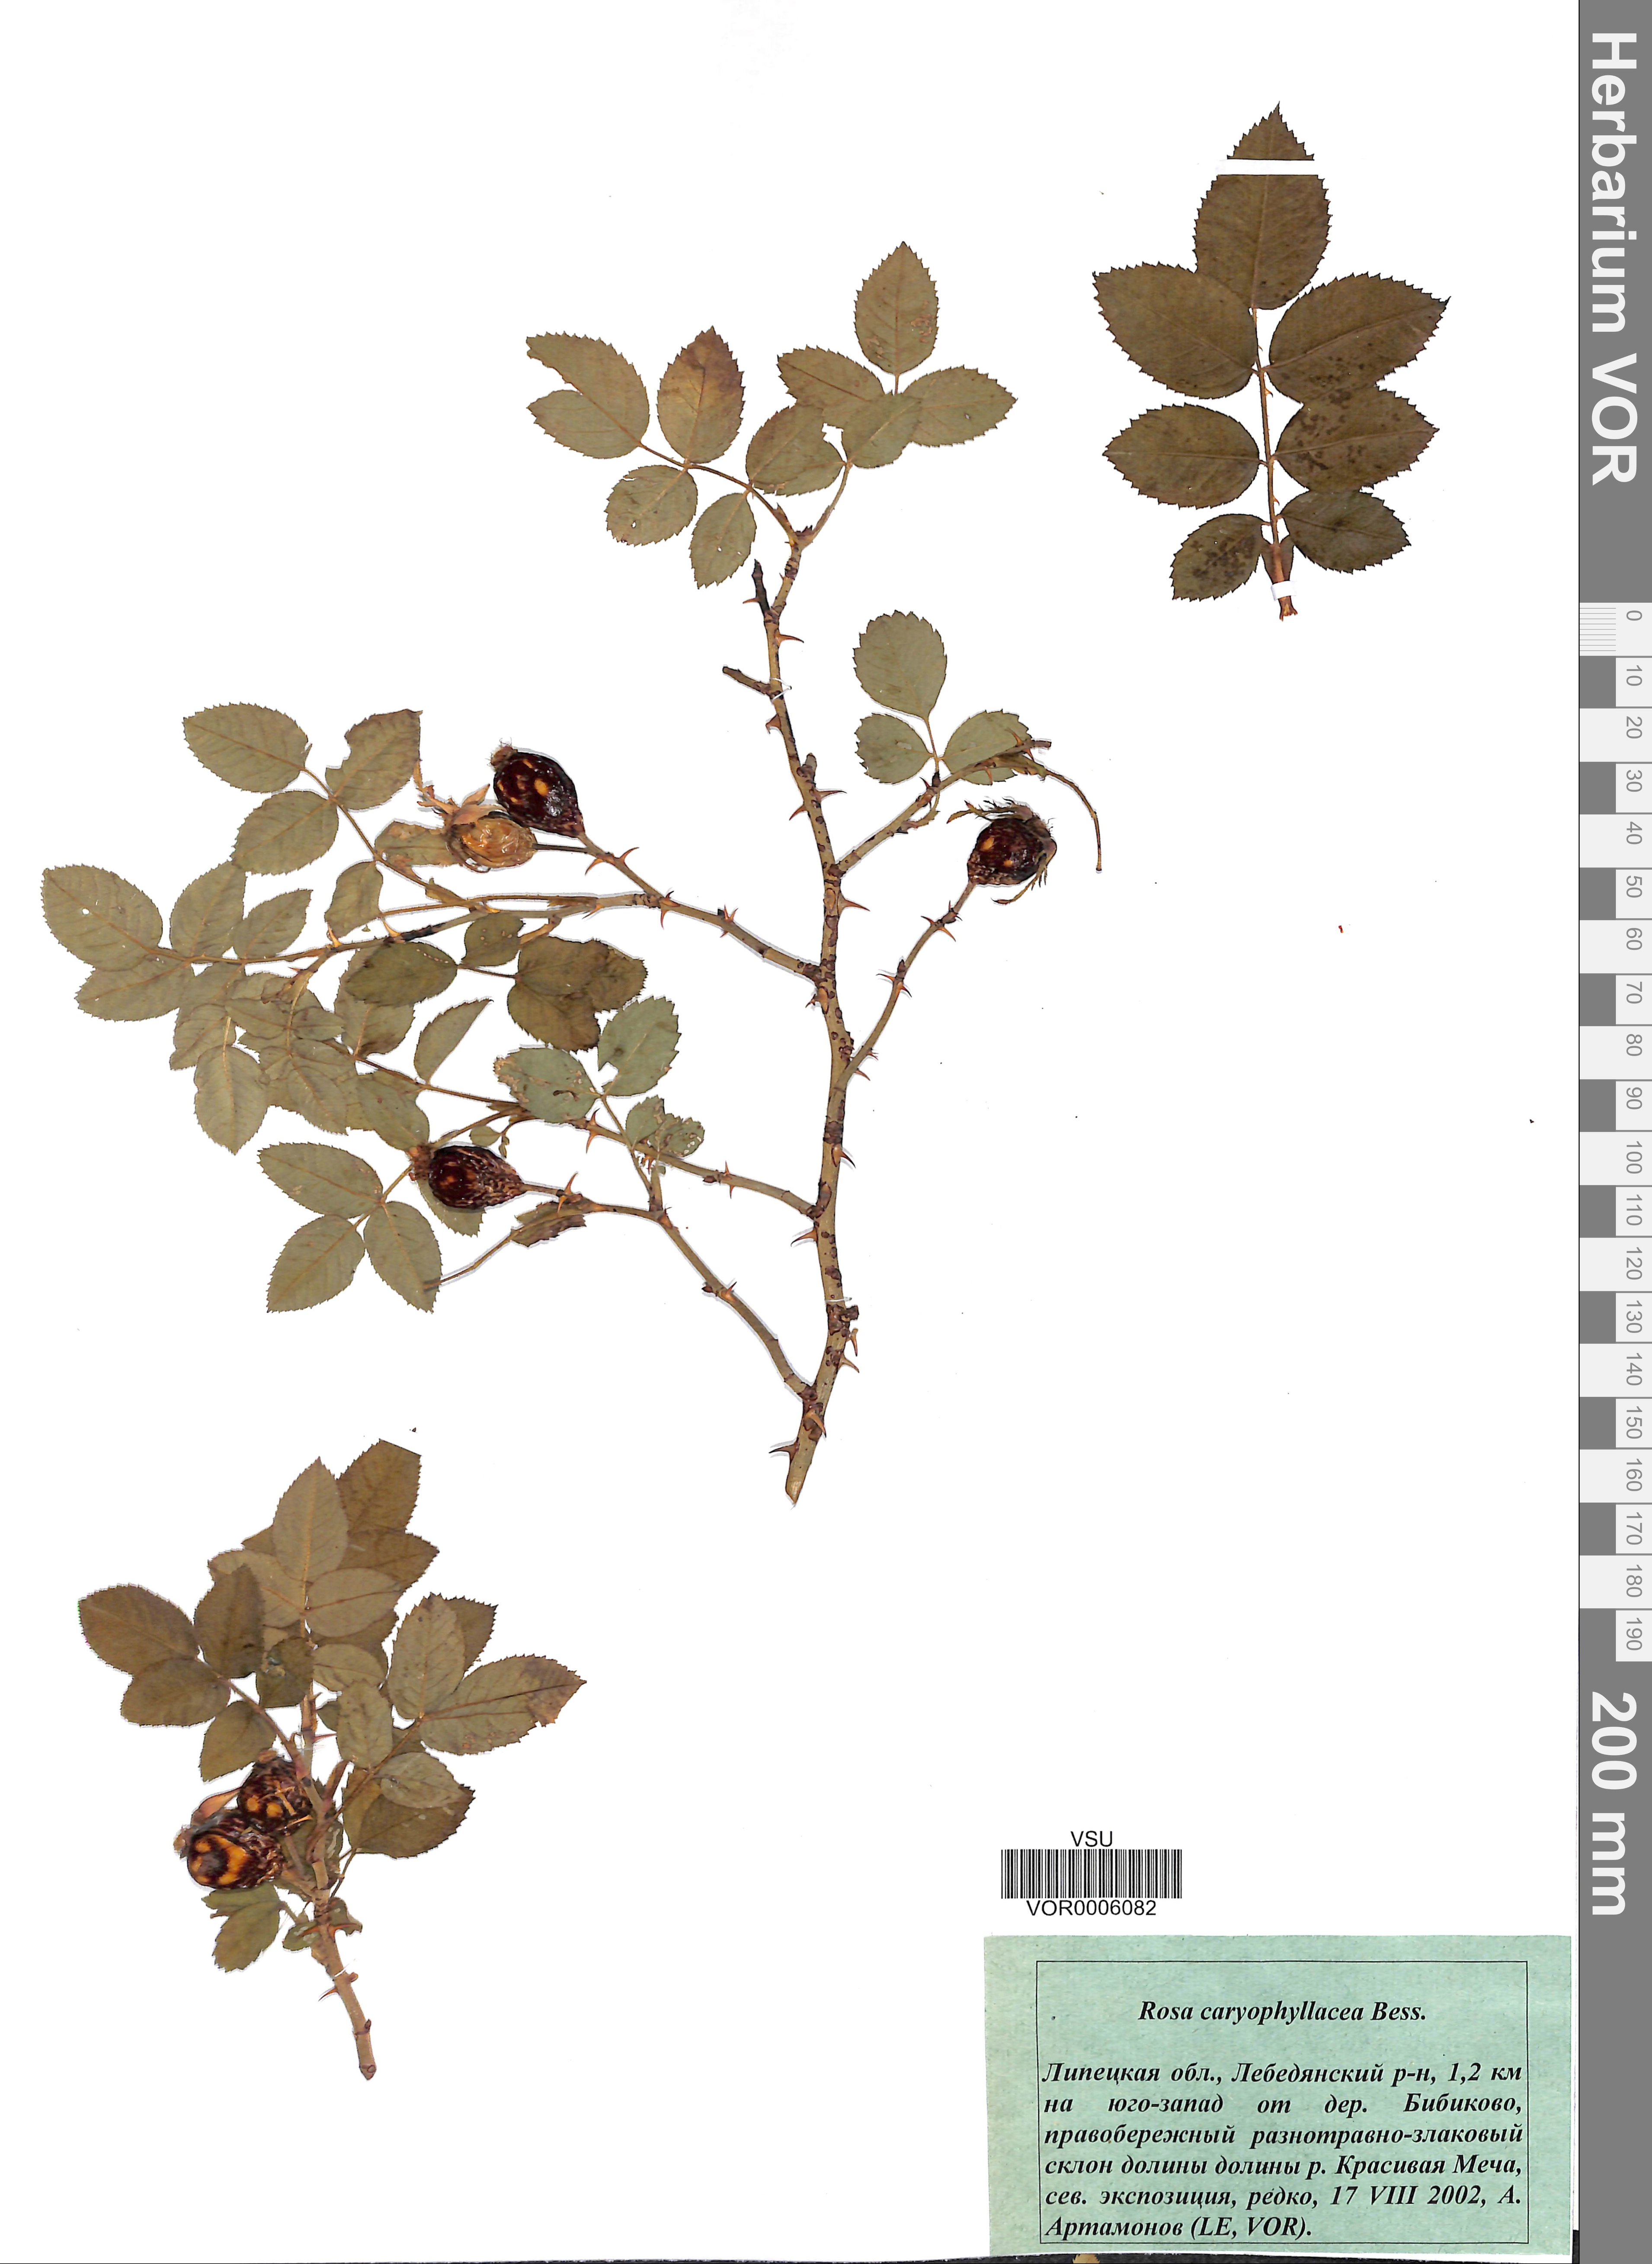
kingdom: Plantae
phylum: Tracheophyta
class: Magnoliopsida
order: Rosales
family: Rosaceae
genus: Rosa
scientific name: Rosa caryophyllacea
